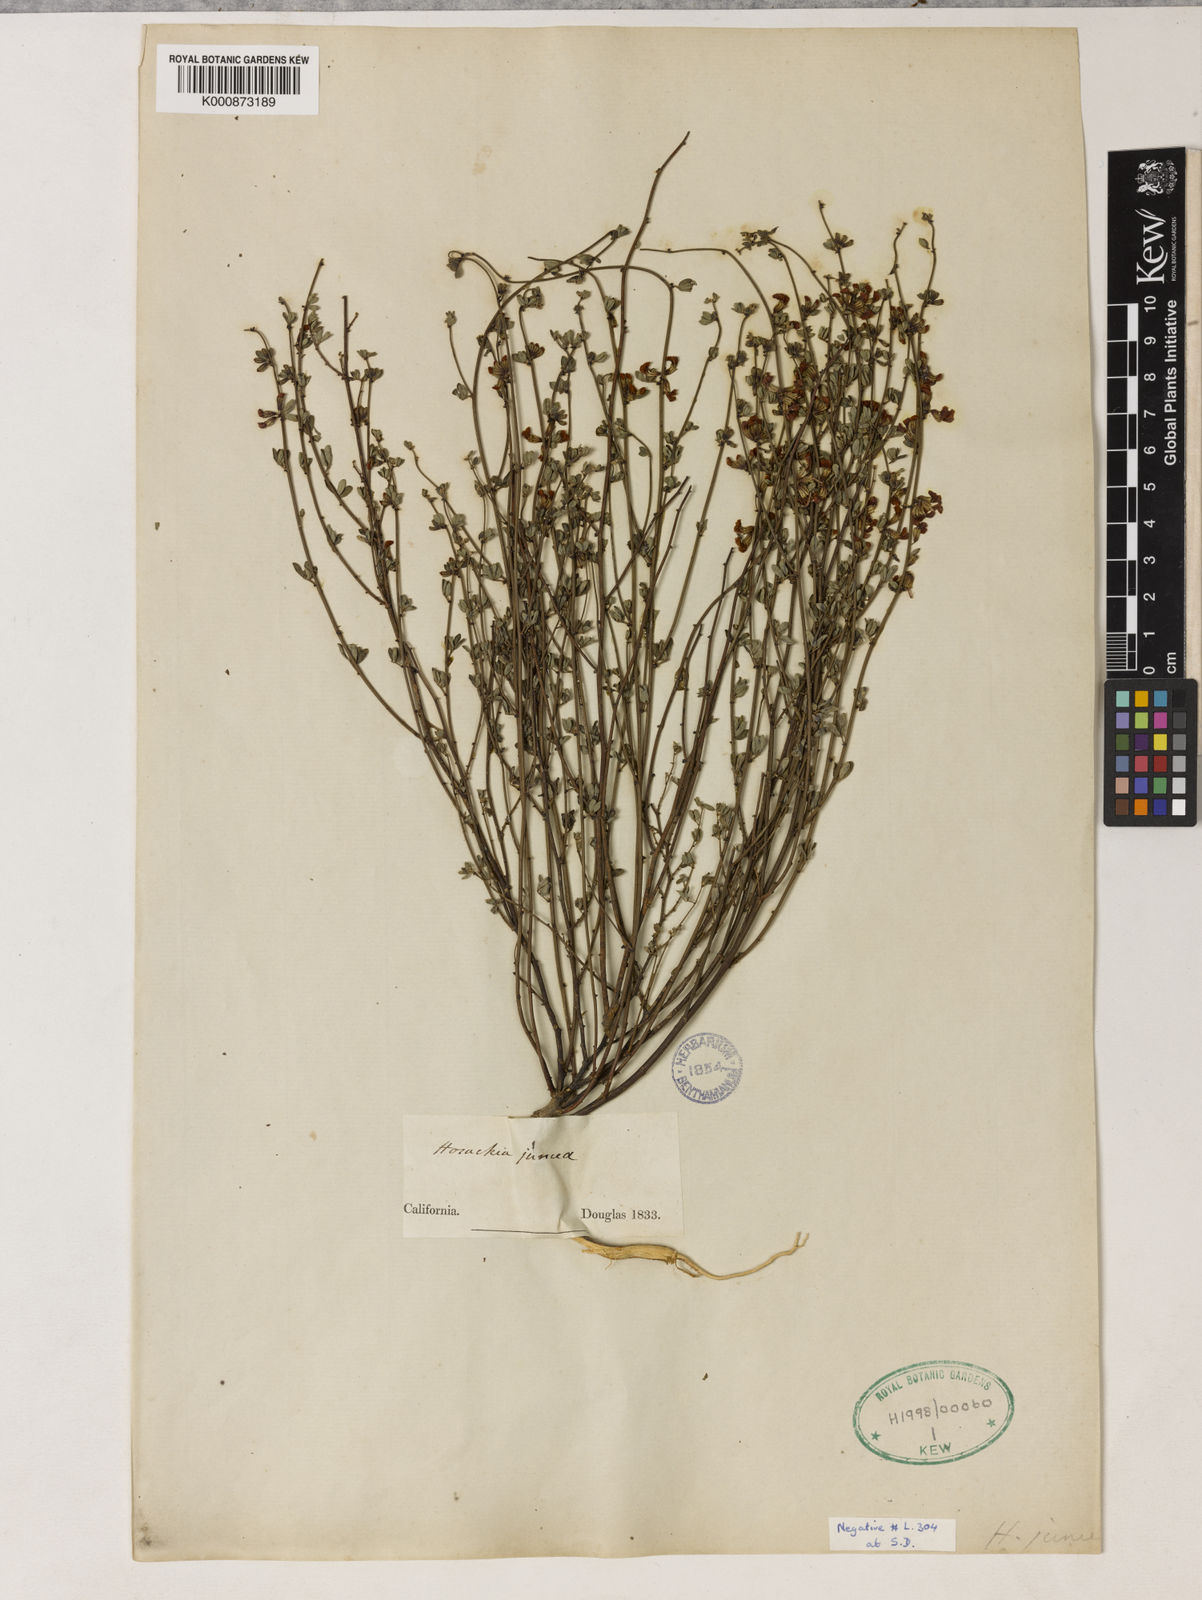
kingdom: Plantae
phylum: Tracheophyta
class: Magnoliopsida
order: Fabales
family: Fabaceae
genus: Acmispon
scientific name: Acmispon junceus
